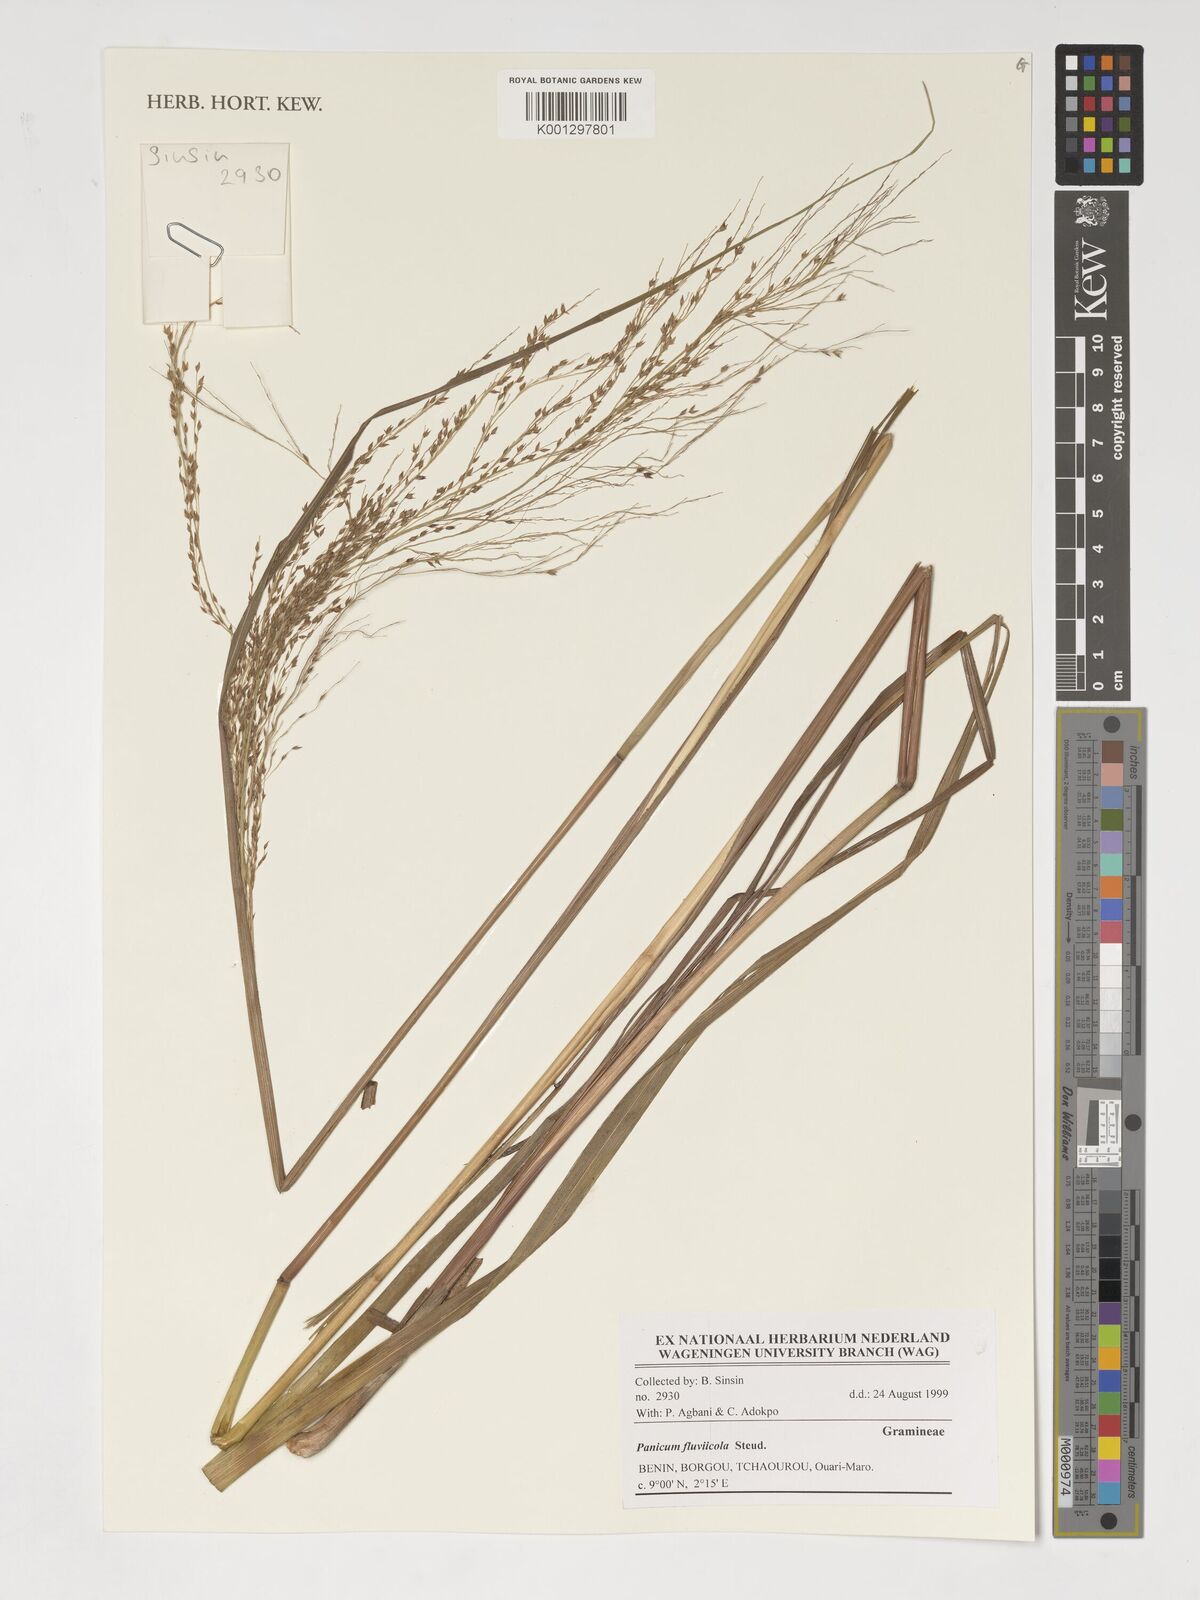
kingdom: Plantae
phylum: Tracheophyta
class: Liliopsida
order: Poales
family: Poaceae
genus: Panicum
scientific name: Panicum fluviicola
